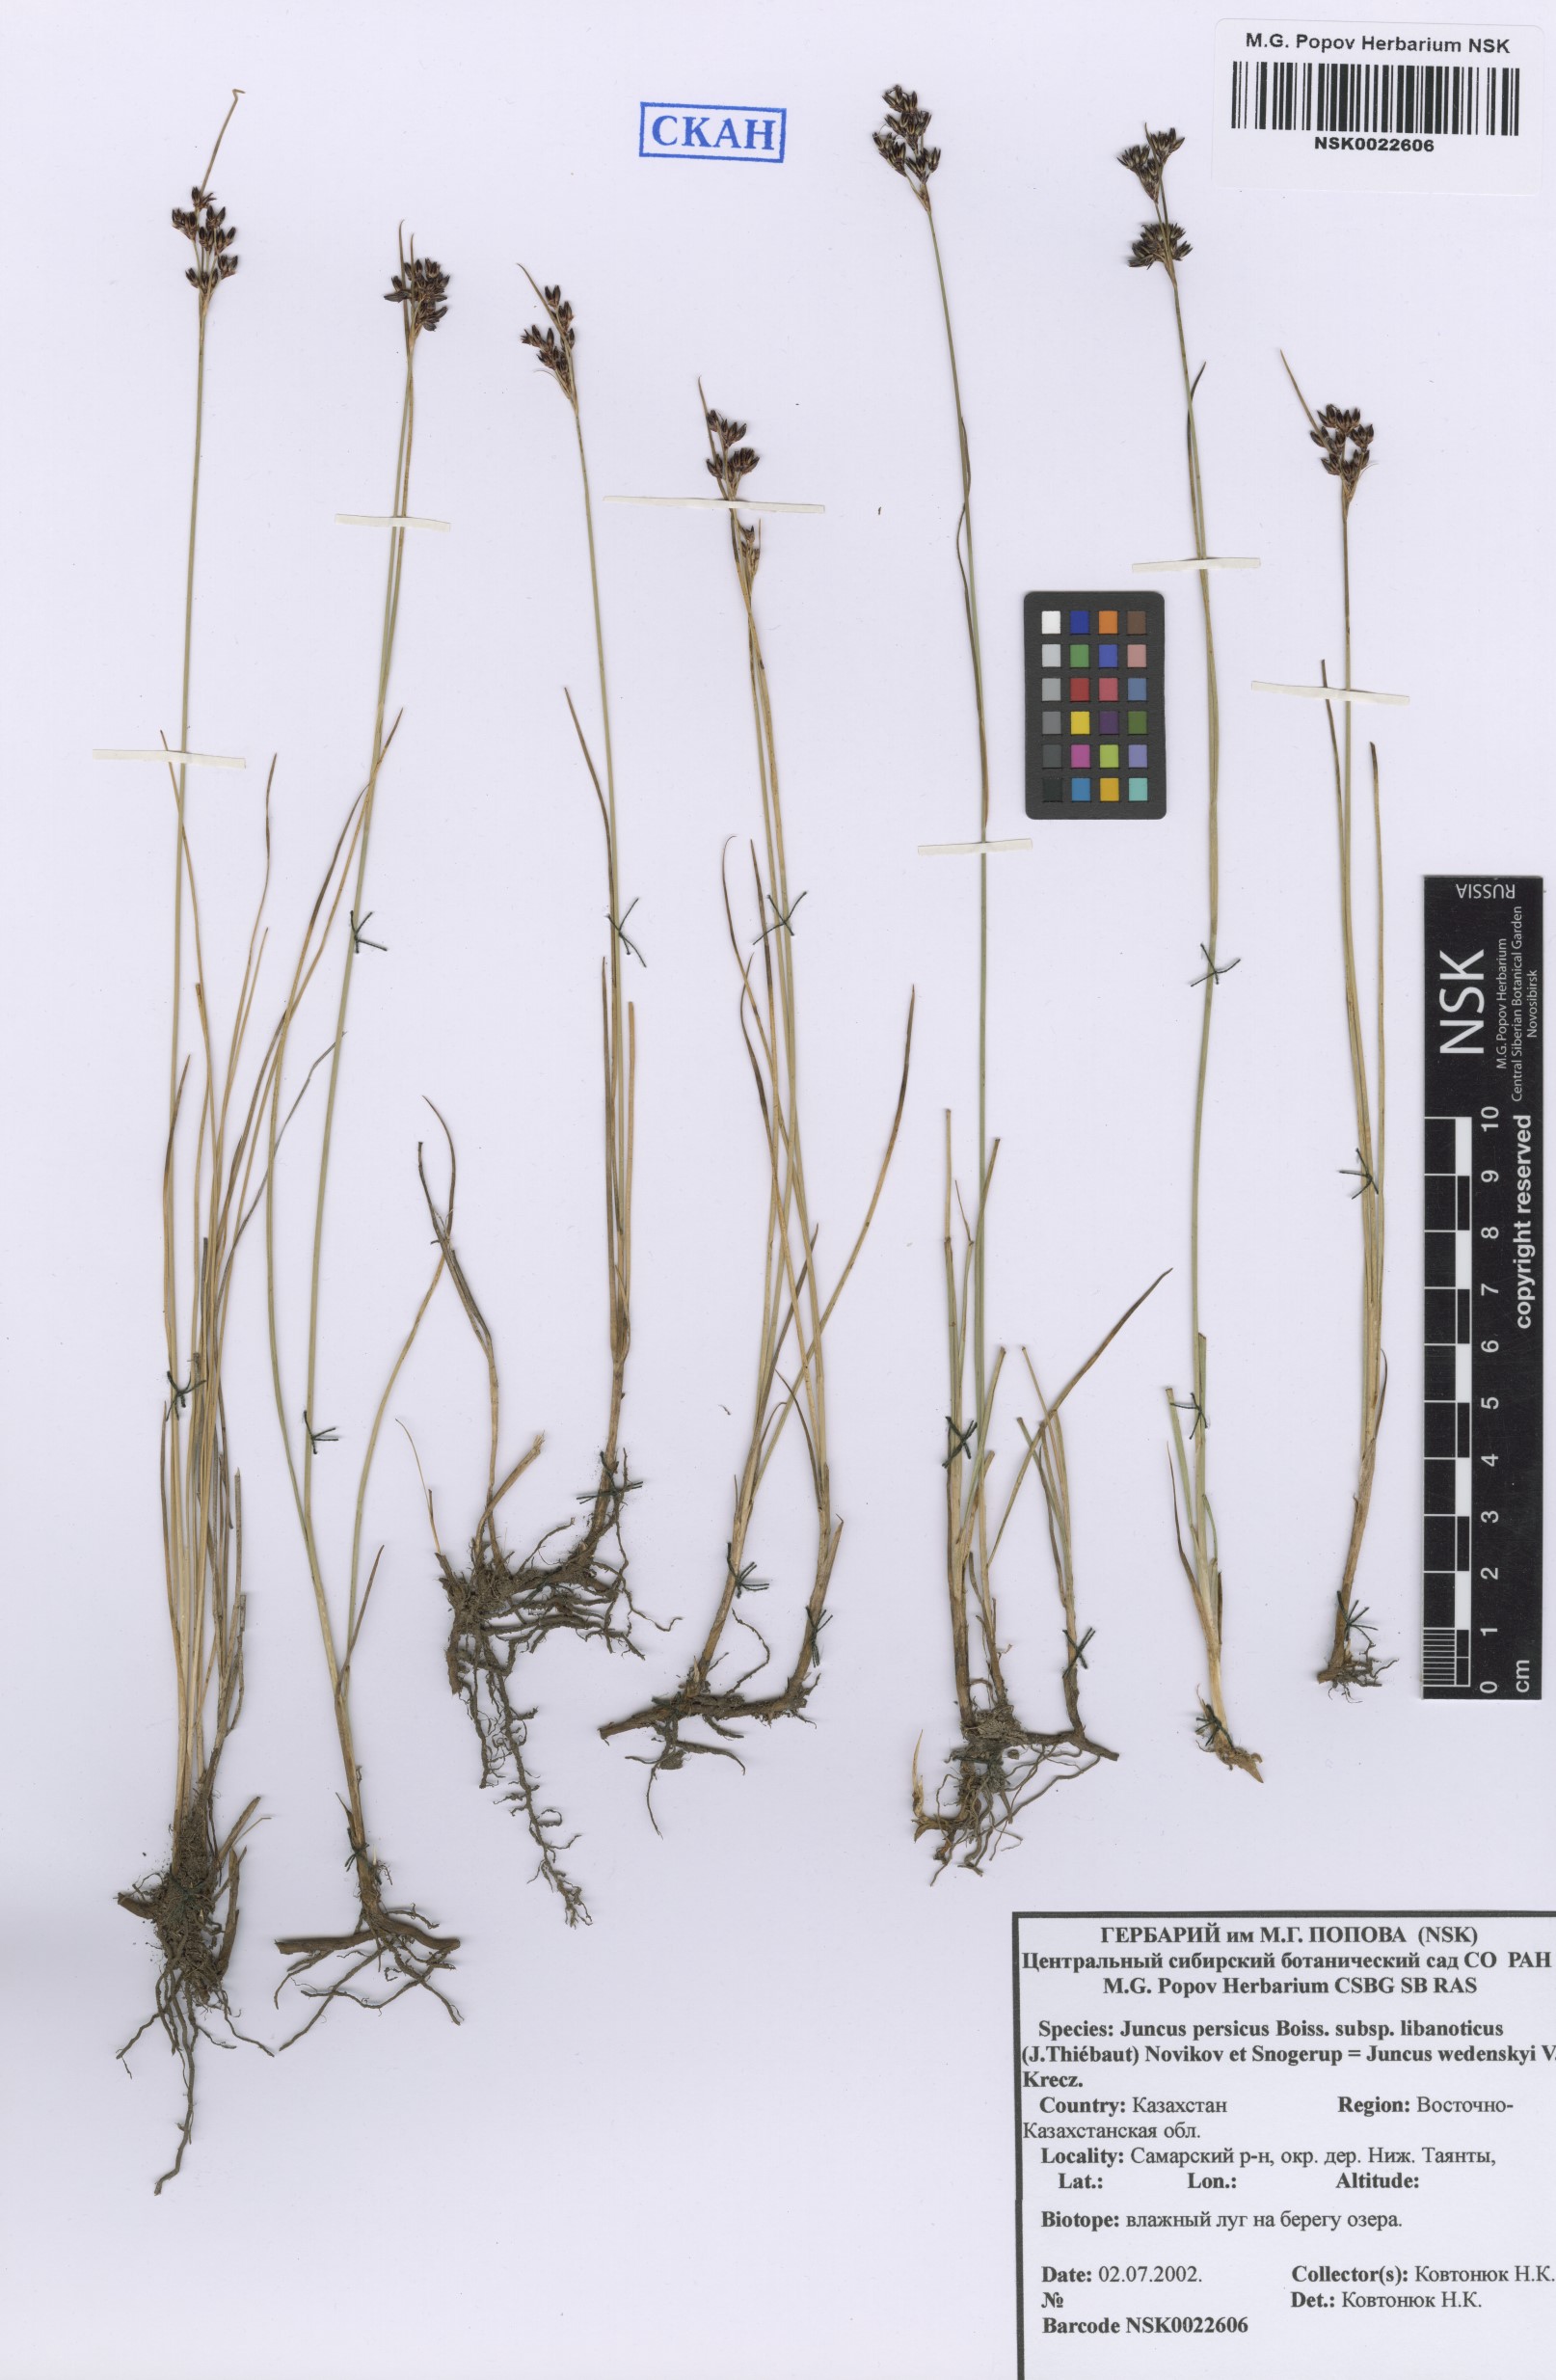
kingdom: Plantae
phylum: Tracheophyta
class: Liliopsida
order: Poales
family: Juncaceae
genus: Juncus
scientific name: Juncus persicus
